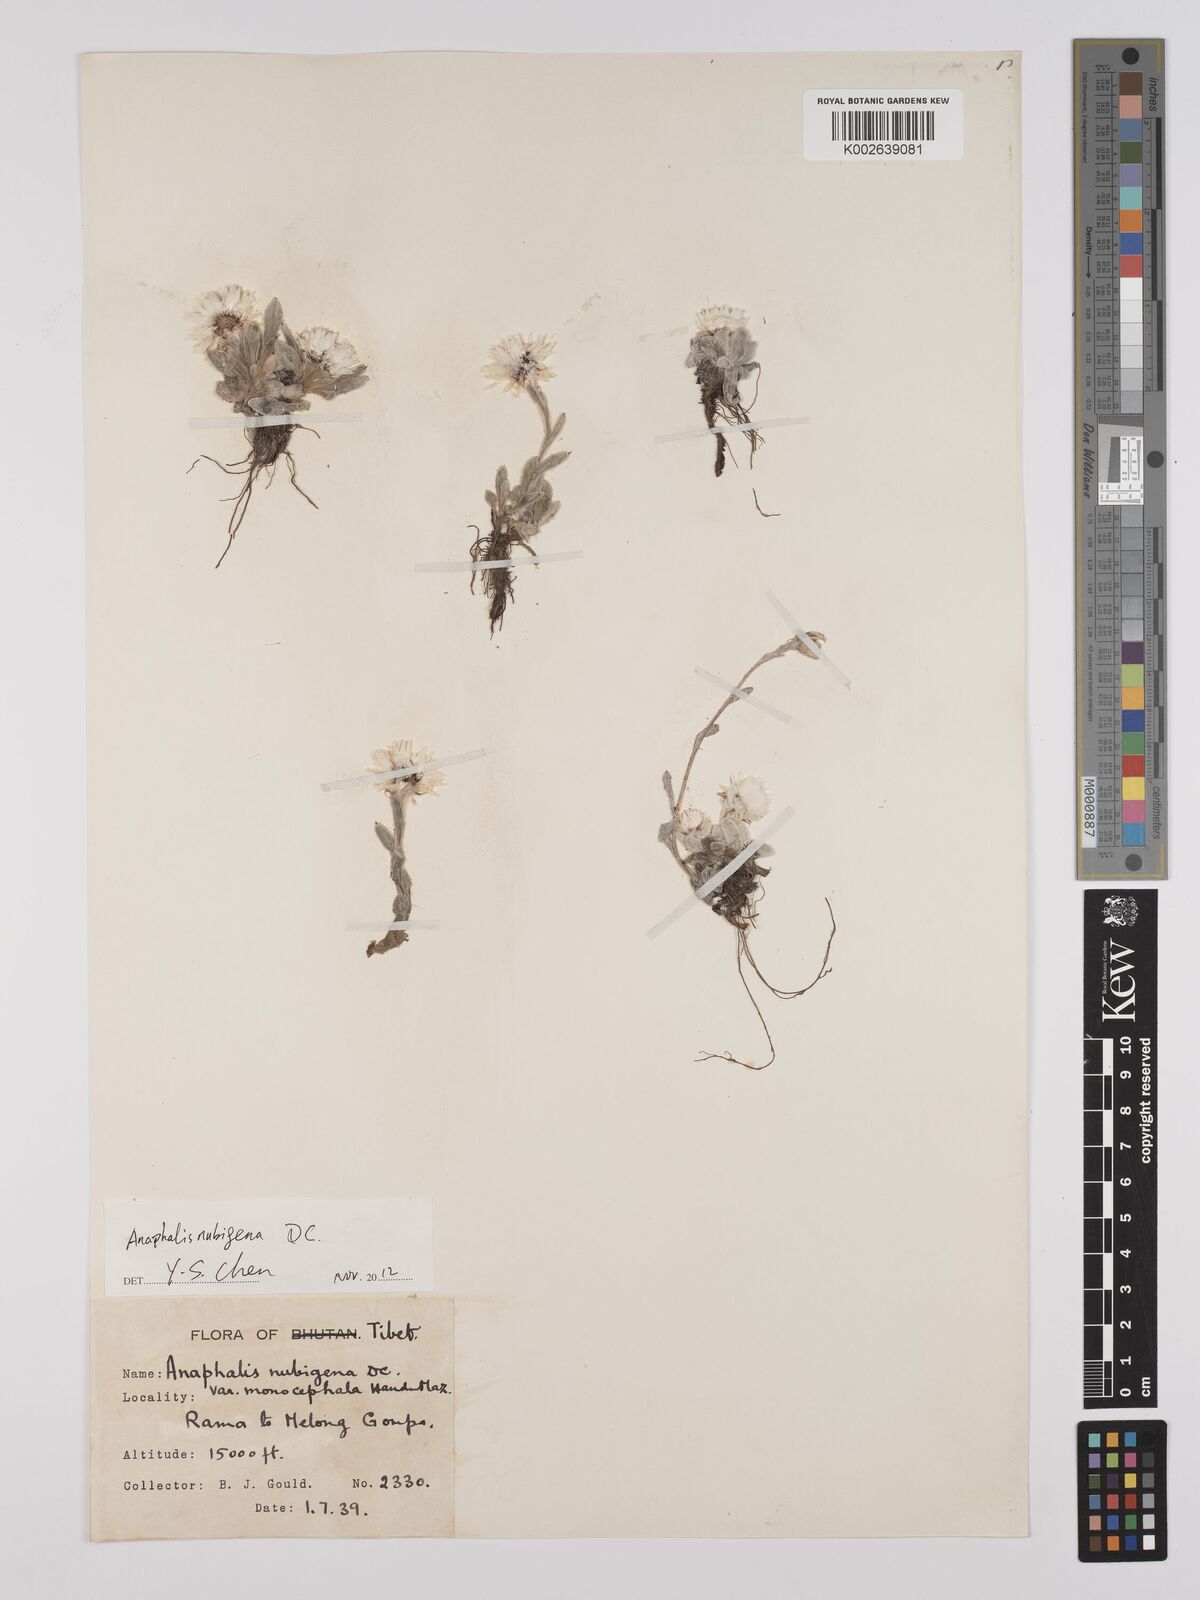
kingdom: Plantae
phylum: Tracheophyta
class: Magnoliopsida
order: Asterales
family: Asteraceae
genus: Anaphalis
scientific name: Anaphalis nepalensis
